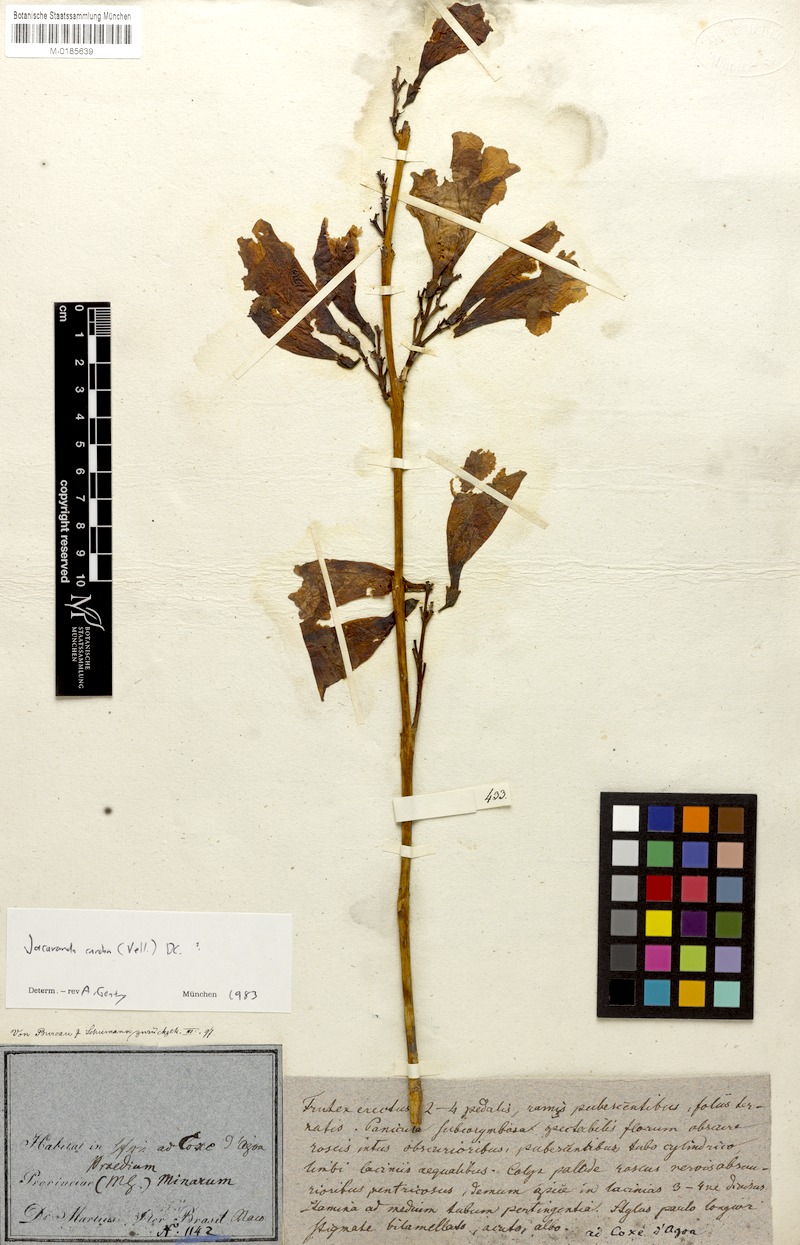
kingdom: Plantae
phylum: Tracheophyta
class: Magnoliopsida
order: Lamiales
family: Bignoniaceae
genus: Jacaranda
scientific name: Jacaranda caroba
